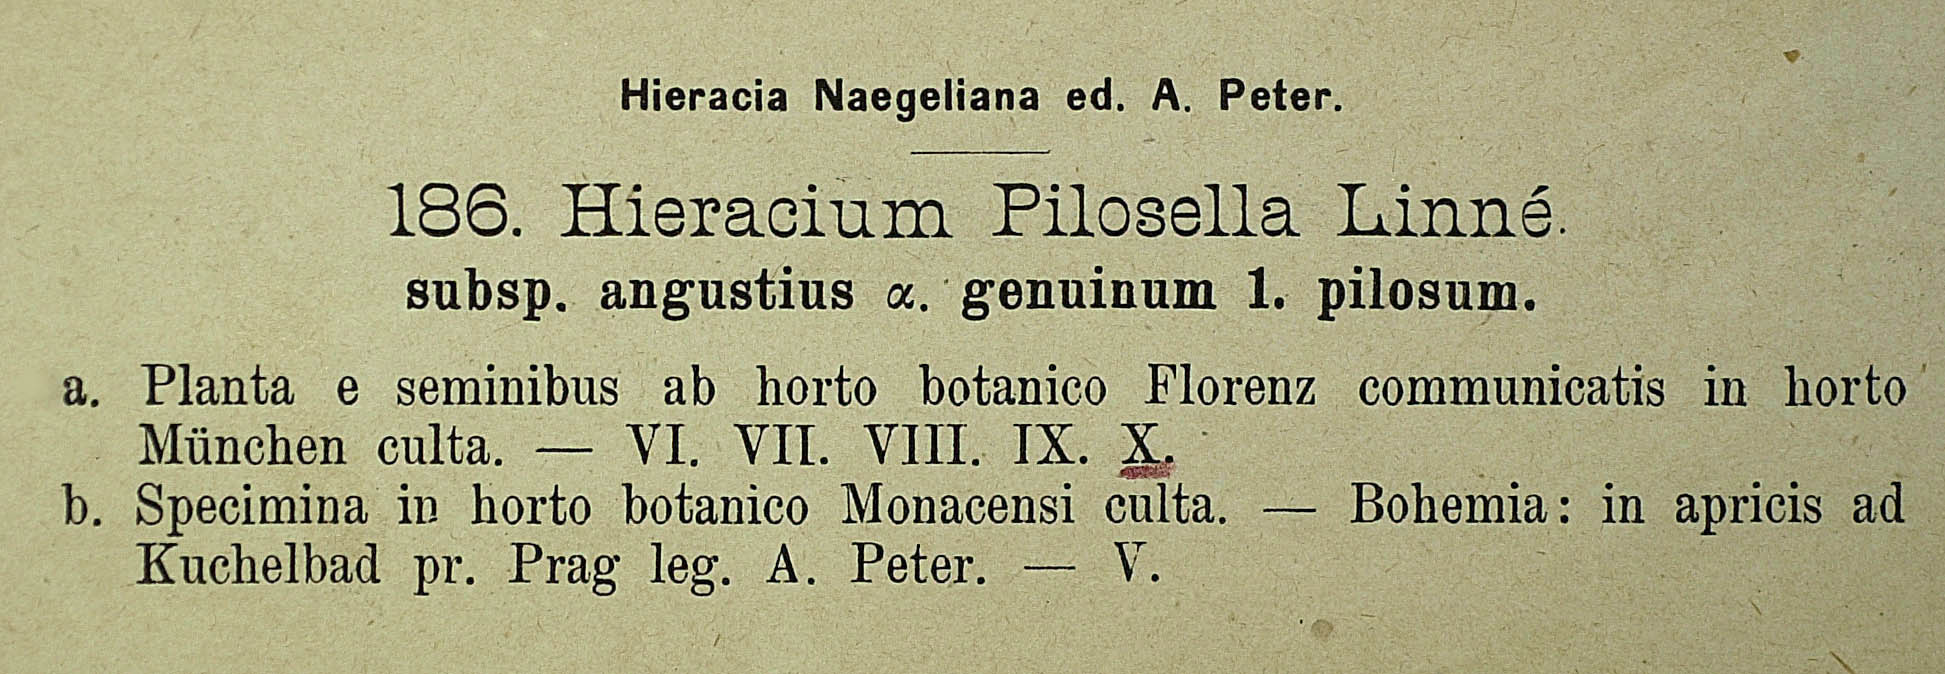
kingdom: Plantae
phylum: Tracheophyta
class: Magnoliopsida
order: Asterales
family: Asteraceae
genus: Pilosella
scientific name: Pilosella officinarum
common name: Mouse-ear hawkweed
